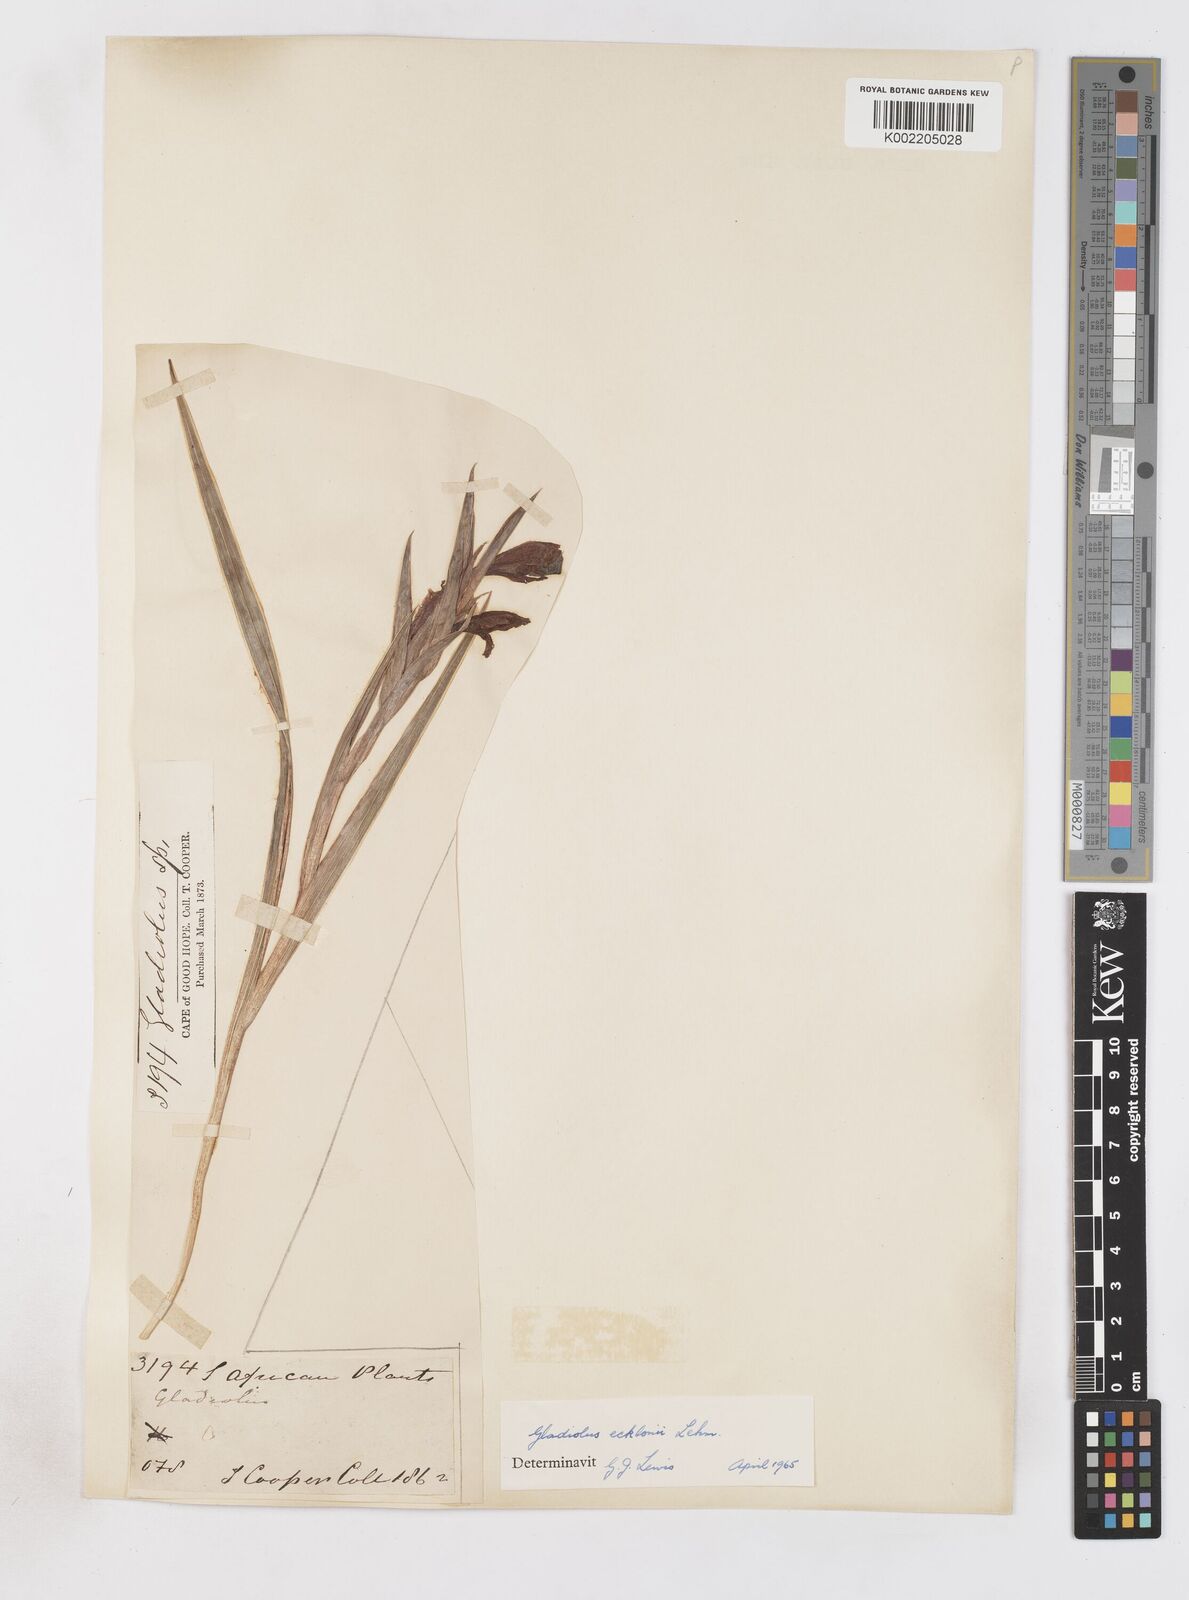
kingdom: Plantae
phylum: Tracheophyta
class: Liliopsida
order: Asparagales
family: Iridaceae
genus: Gladiolus
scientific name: Gladiolus ecklonii
